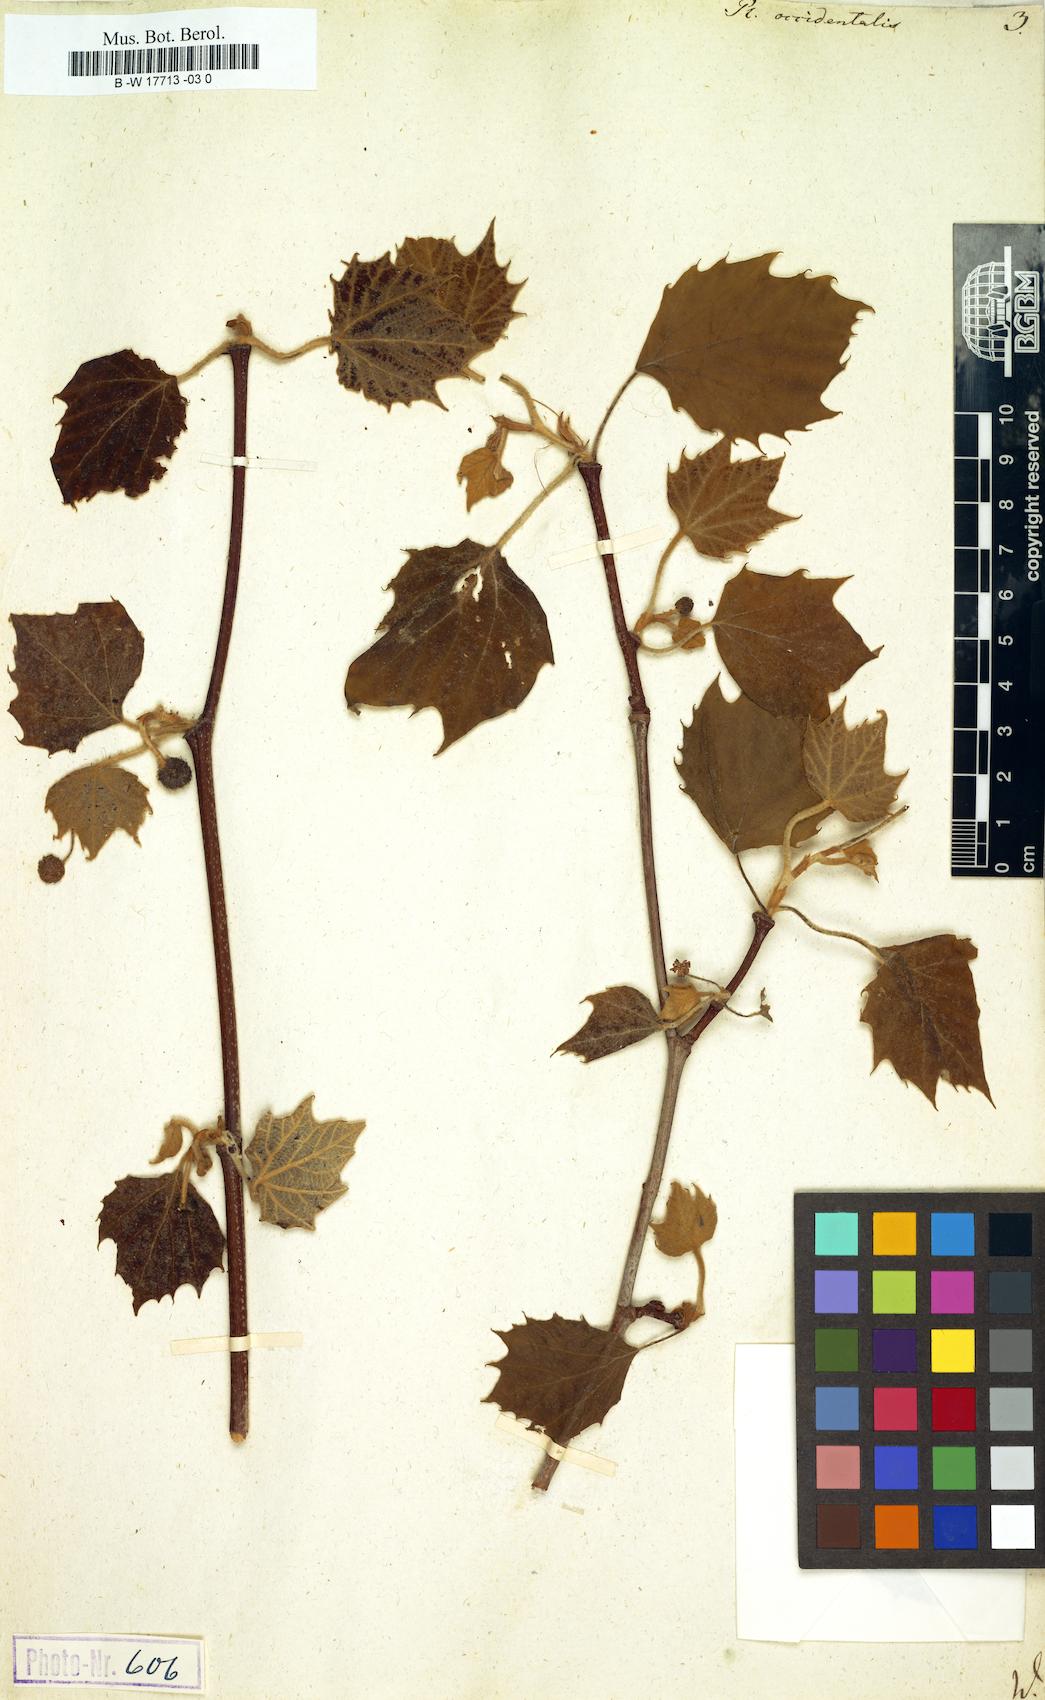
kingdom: Plantae
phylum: Tracheophyta
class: Magnoliopsida
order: Proteales
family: Platanaceae
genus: Platanus
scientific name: Platanus occidentalis
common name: American sycamore
